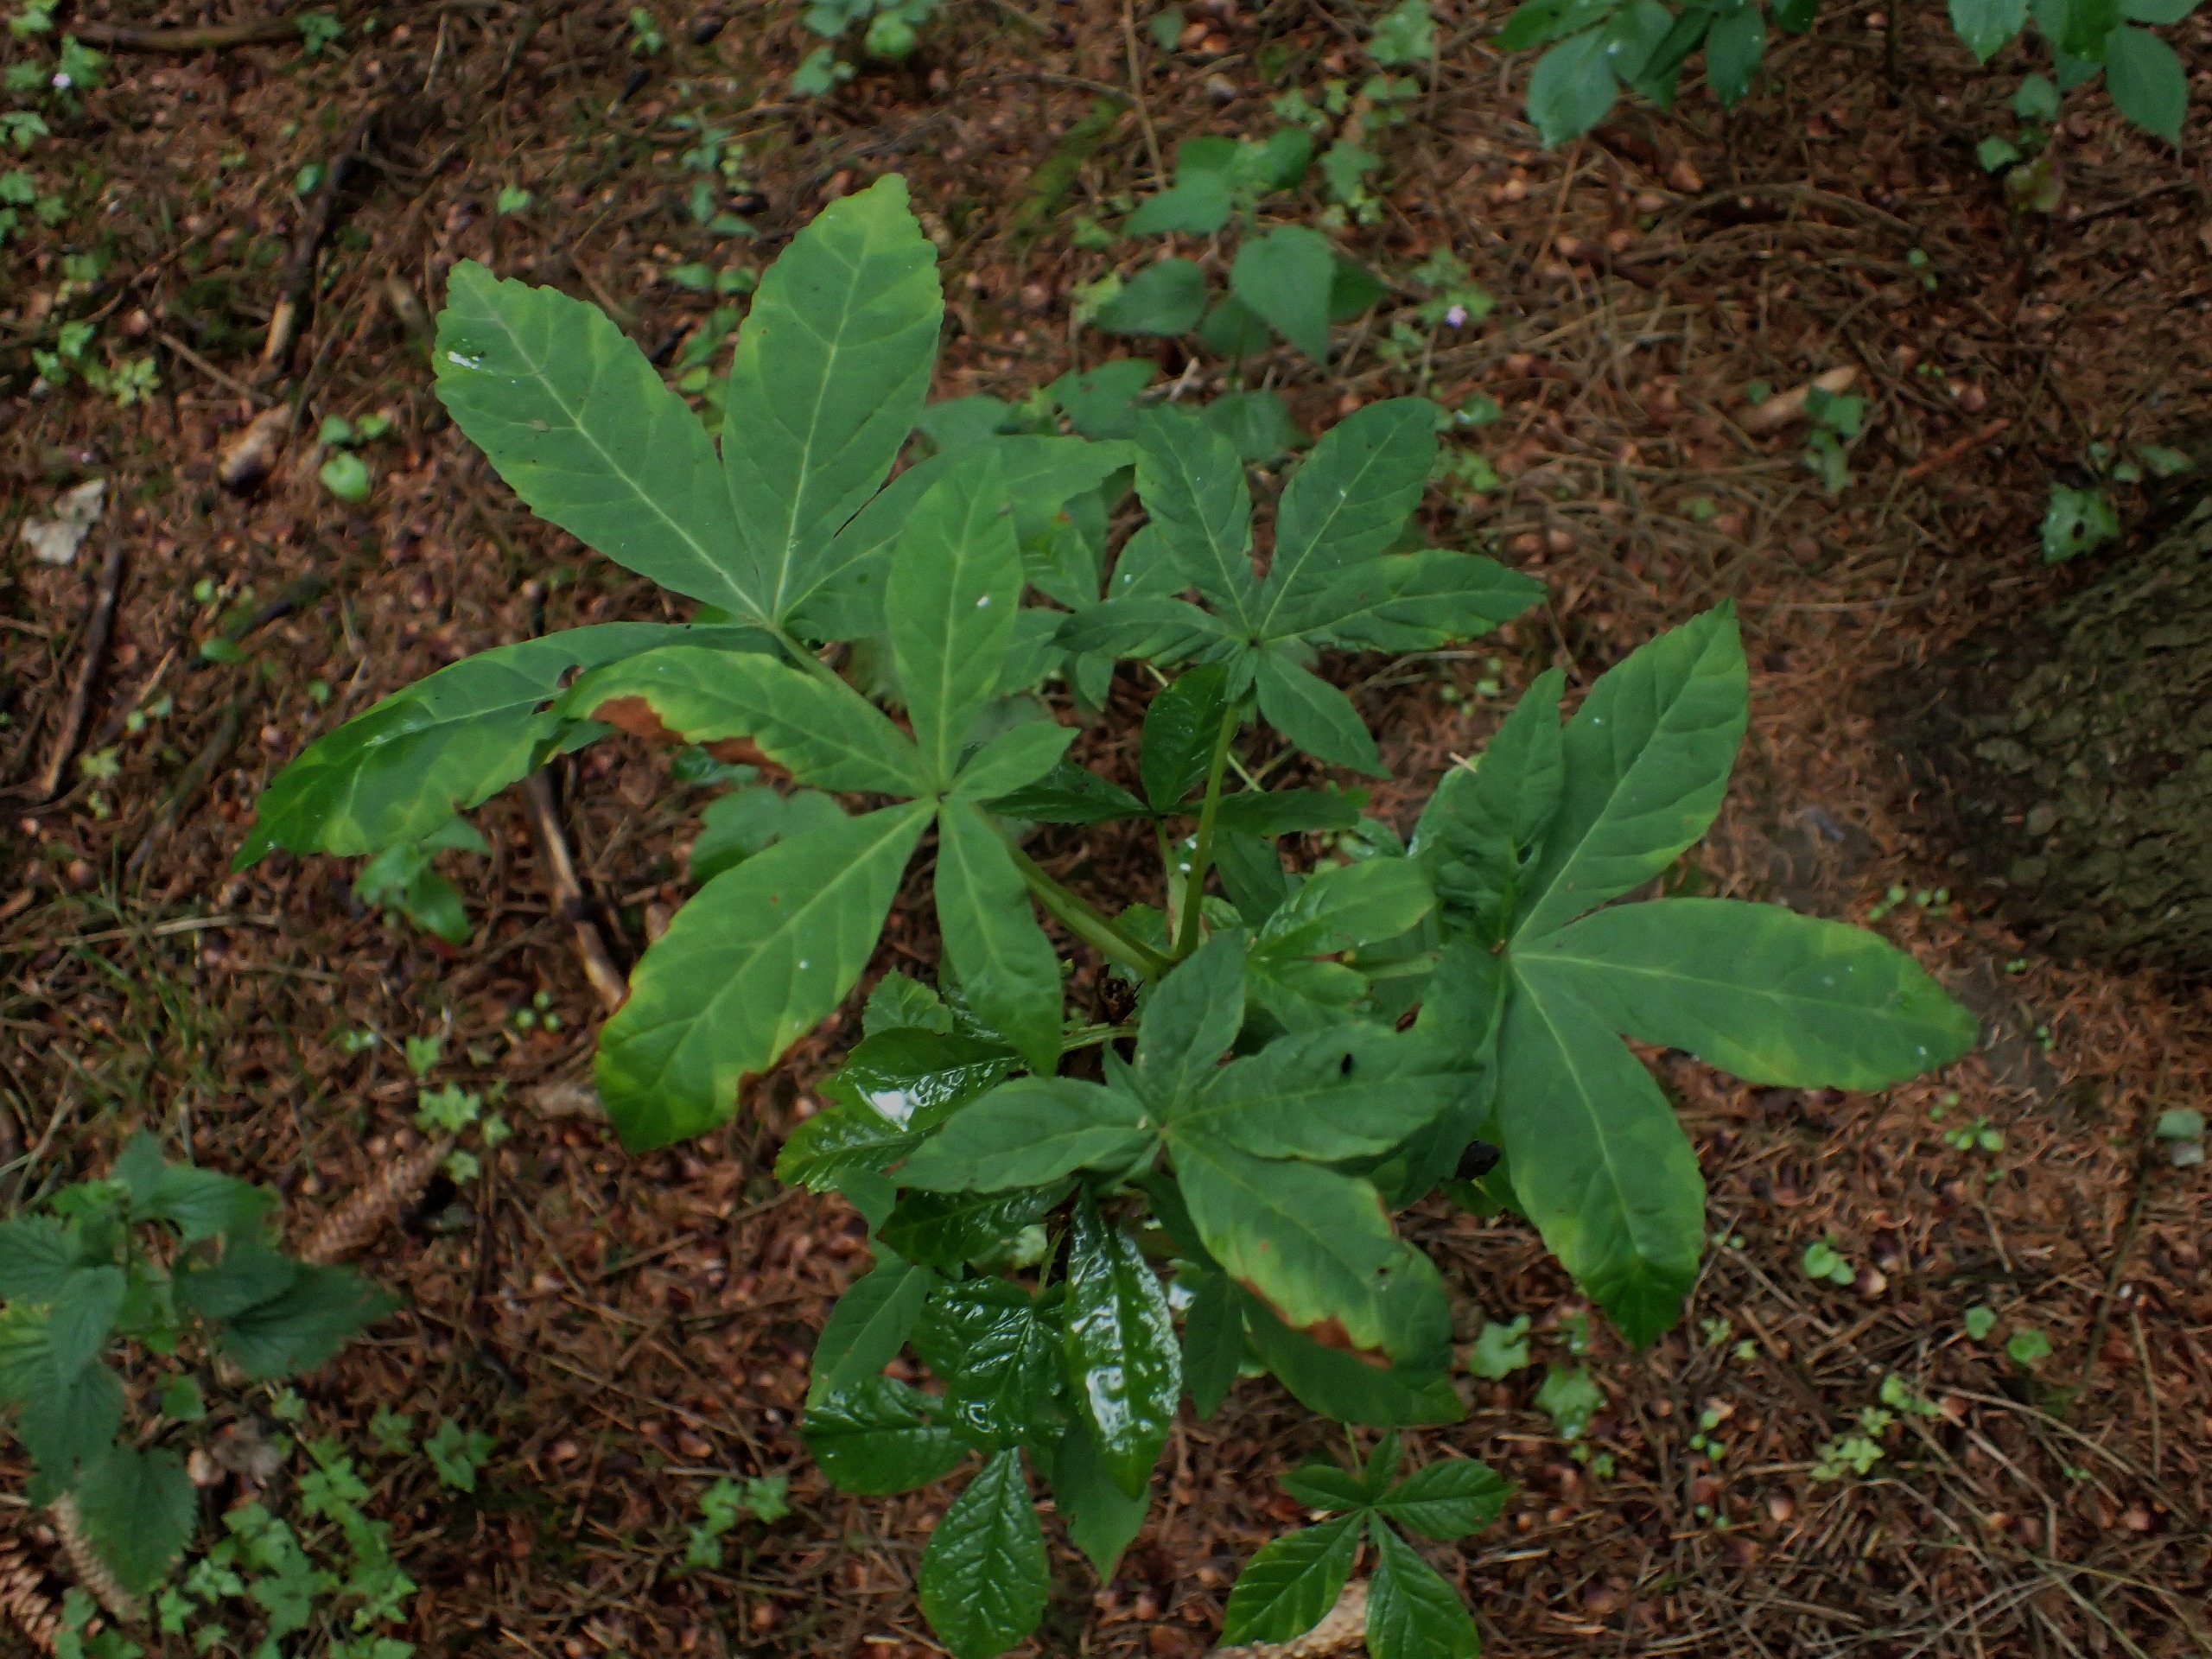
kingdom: Plantae
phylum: Tracheophyta
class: Magnoliopsida
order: Sapindales
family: Sapindaceae
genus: Aesculus
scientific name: Aesculus hippocastanum
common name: Hestekastanie
